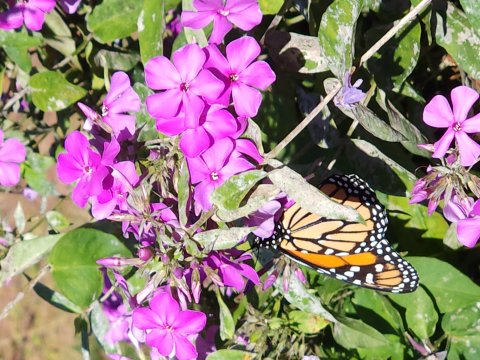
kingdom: Animalia
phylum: Arthropoda
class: Insecta
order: Lepidoptera
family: Nymphalidae
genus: Danaus
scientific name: Danaus plexippus
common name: Monarch
